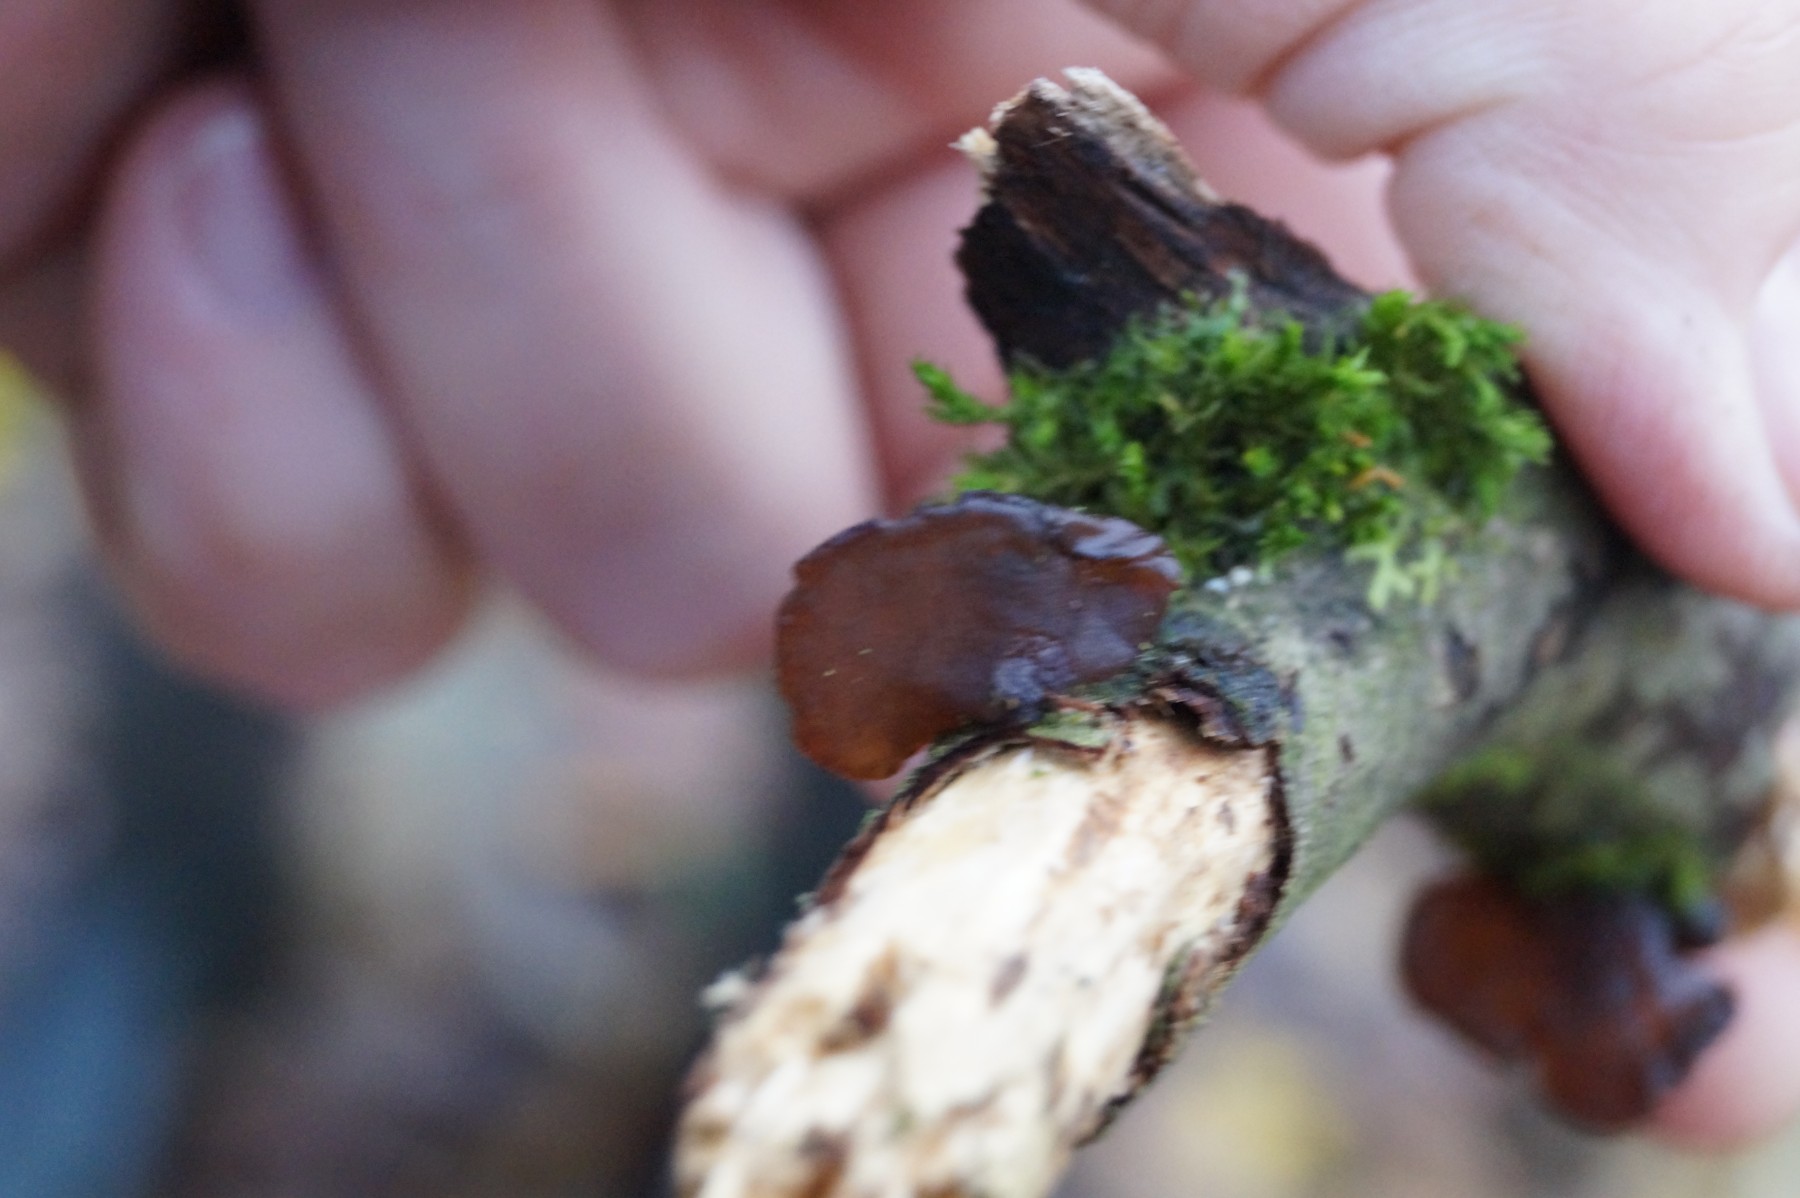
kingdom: Fungi
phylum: Basidiomycota
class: Agaricomycetes
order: Auriculariales
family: Auriculariaceae
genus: Exidia
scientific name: Exidia recisa
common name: pile-bævretop
